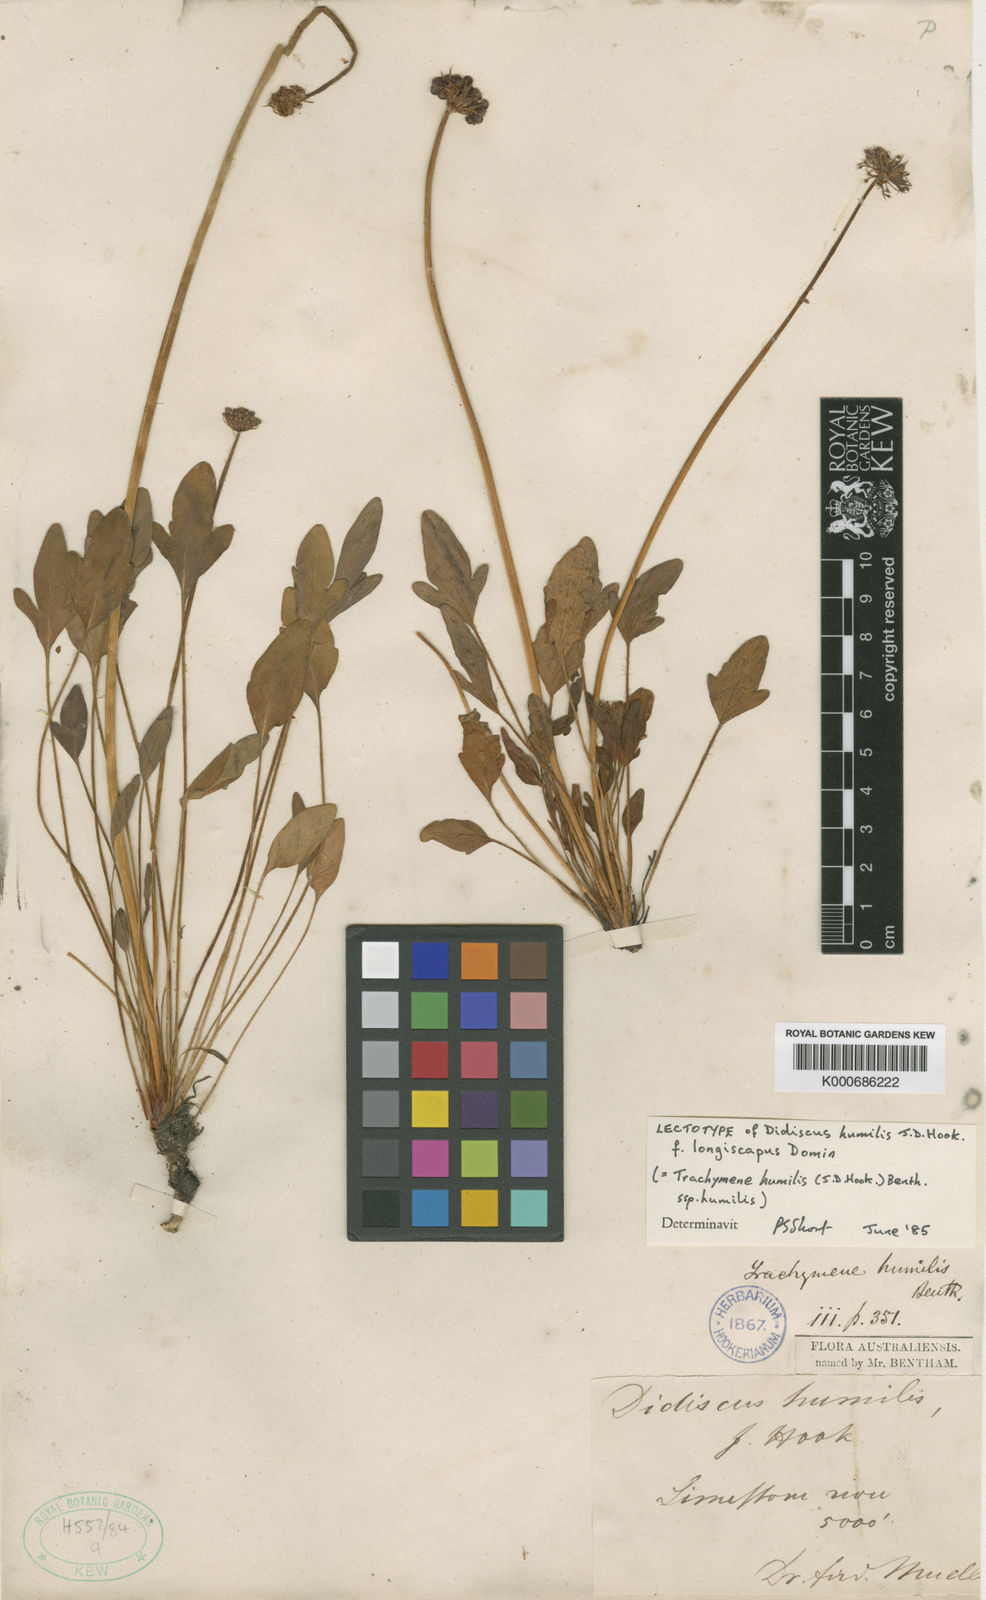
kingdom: Plantae
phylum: Tracheophyta
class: Magnoliopsida
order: Apiales
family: Araliaceae
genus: Trachymene
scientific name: Trachymene humilis
